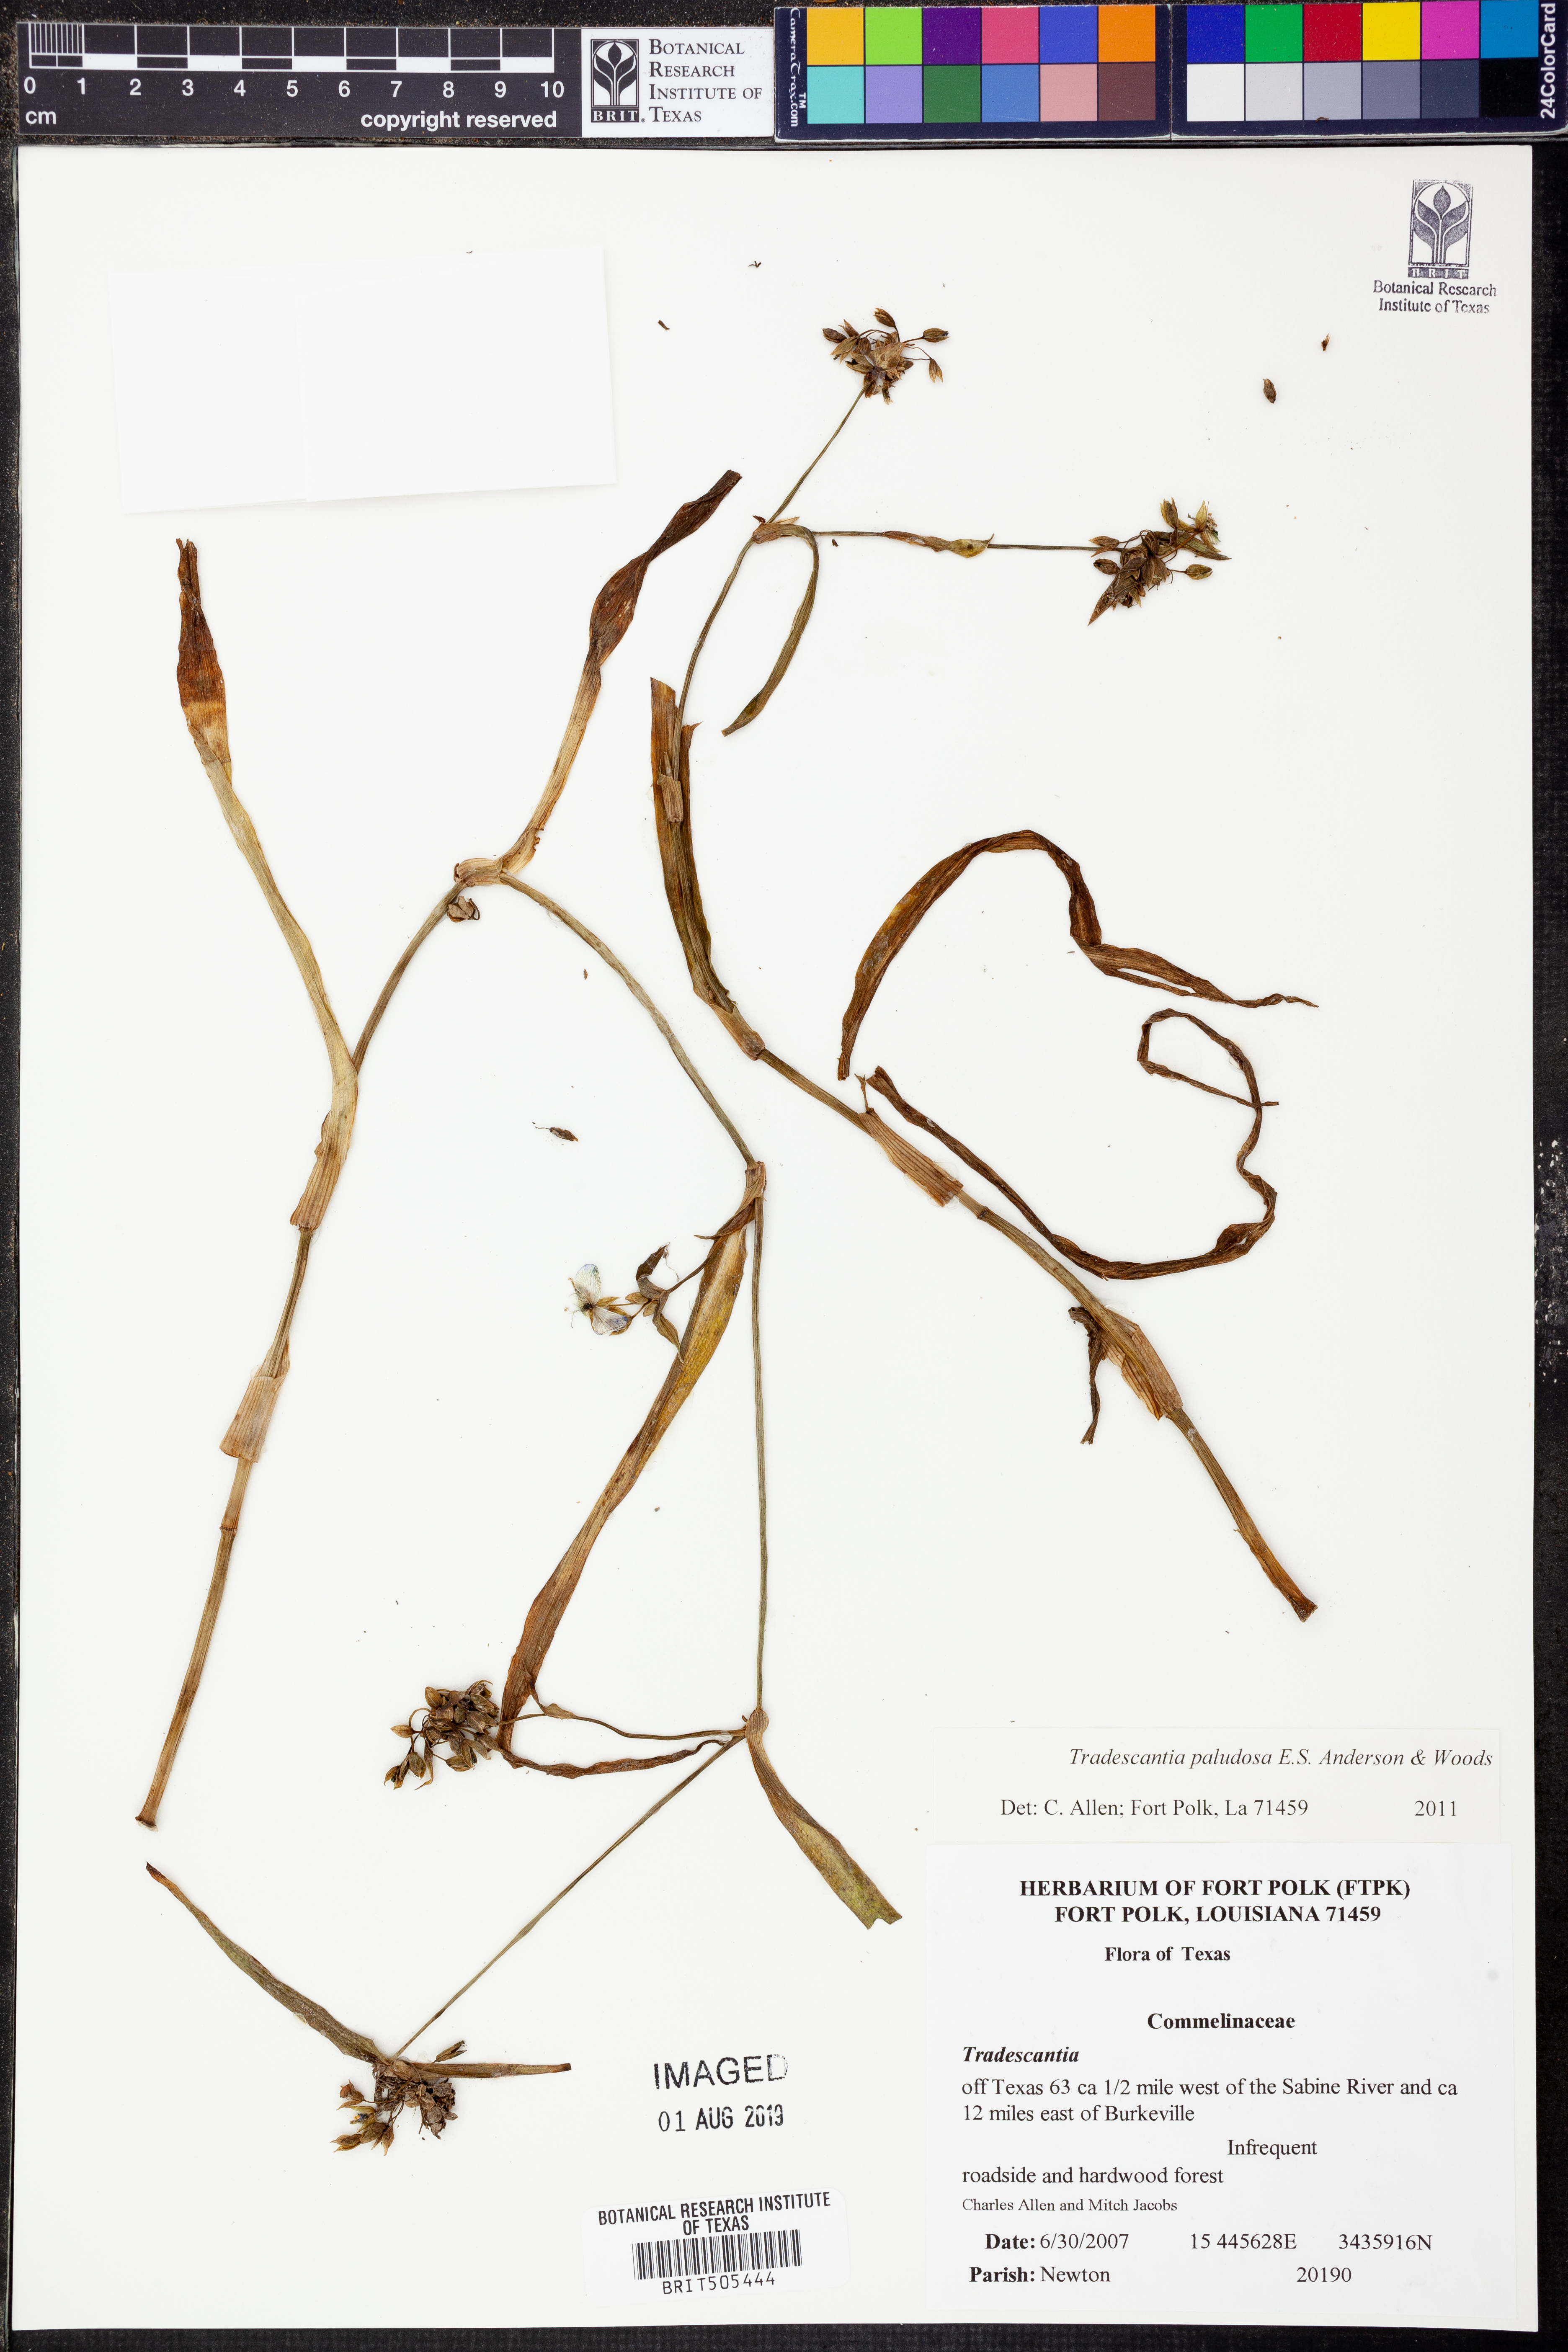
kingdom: Plantae
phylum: Tracheophyta
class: Liliopsida
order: Commelinales
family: Commelinaceae
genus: Tradescantia
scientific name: Tradescantia ohiensis
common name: Ohio spiderwort
